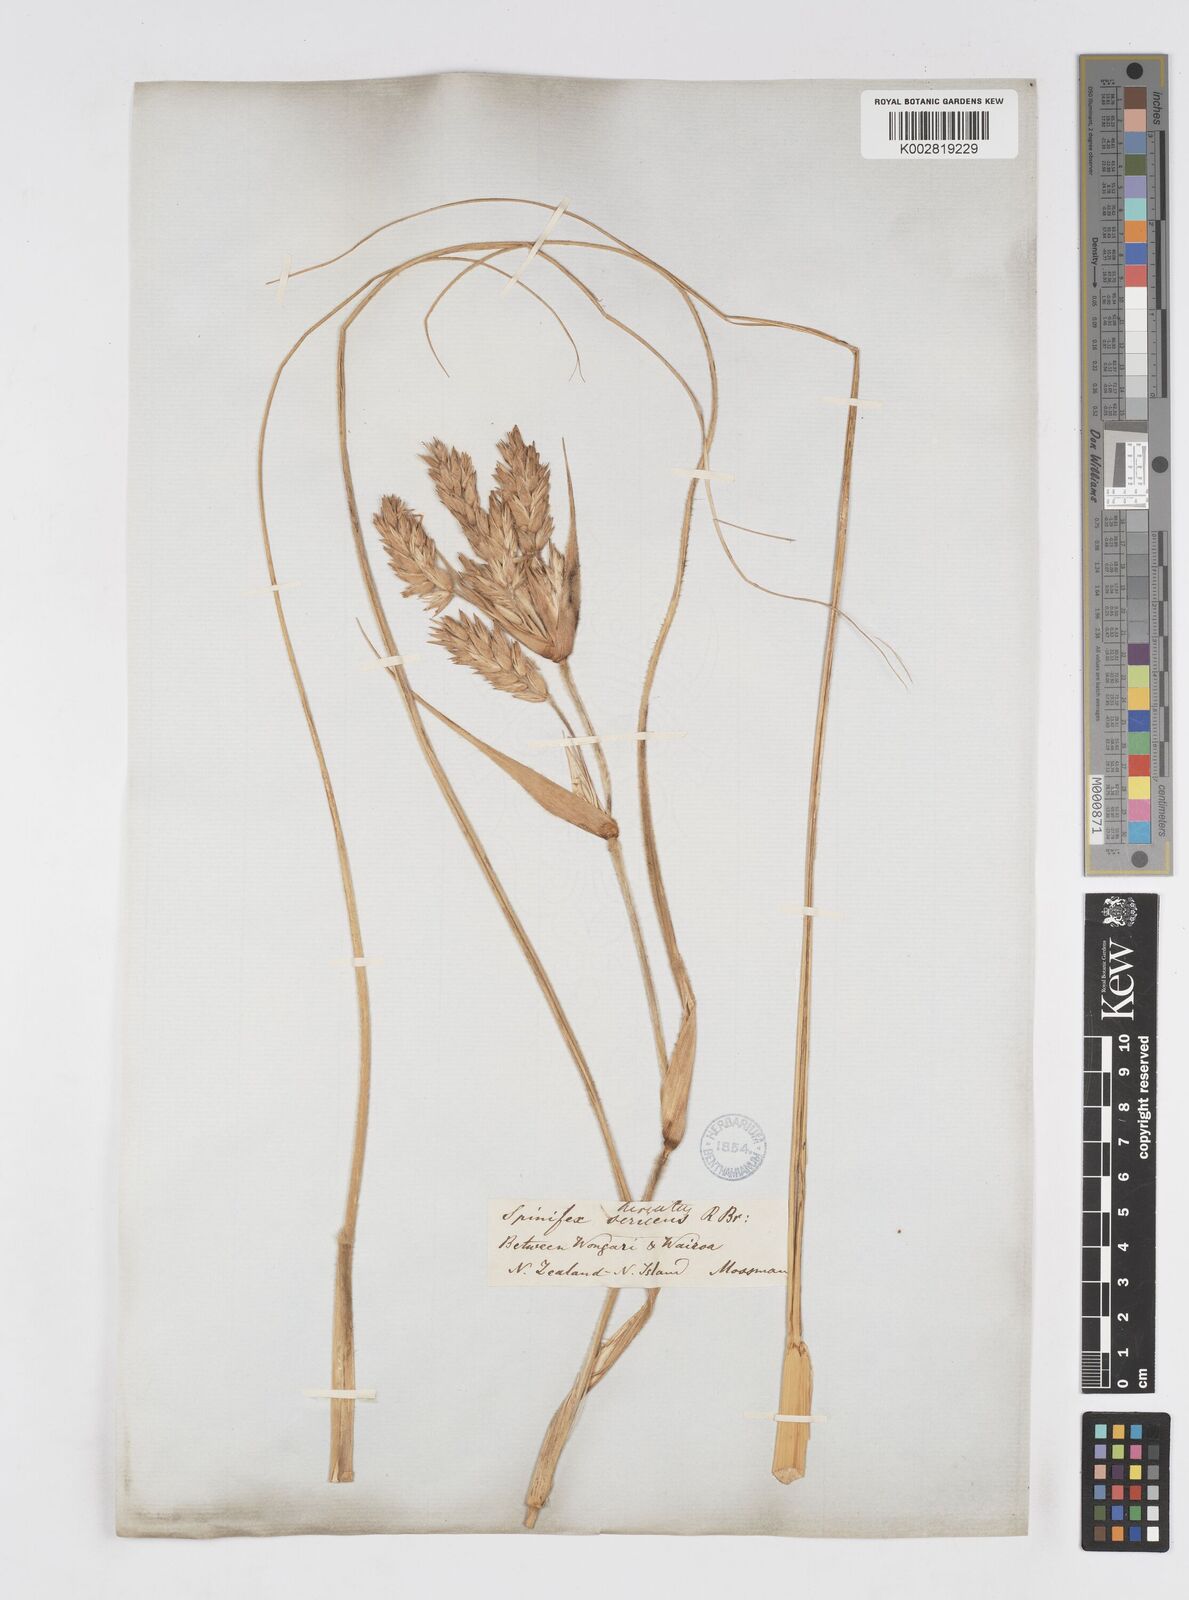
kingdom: Plantae
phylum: Tracheophyta
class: Liliopsida
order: Poales
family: Poaceae
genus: Spinifex
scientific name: Spinifex sericeus
